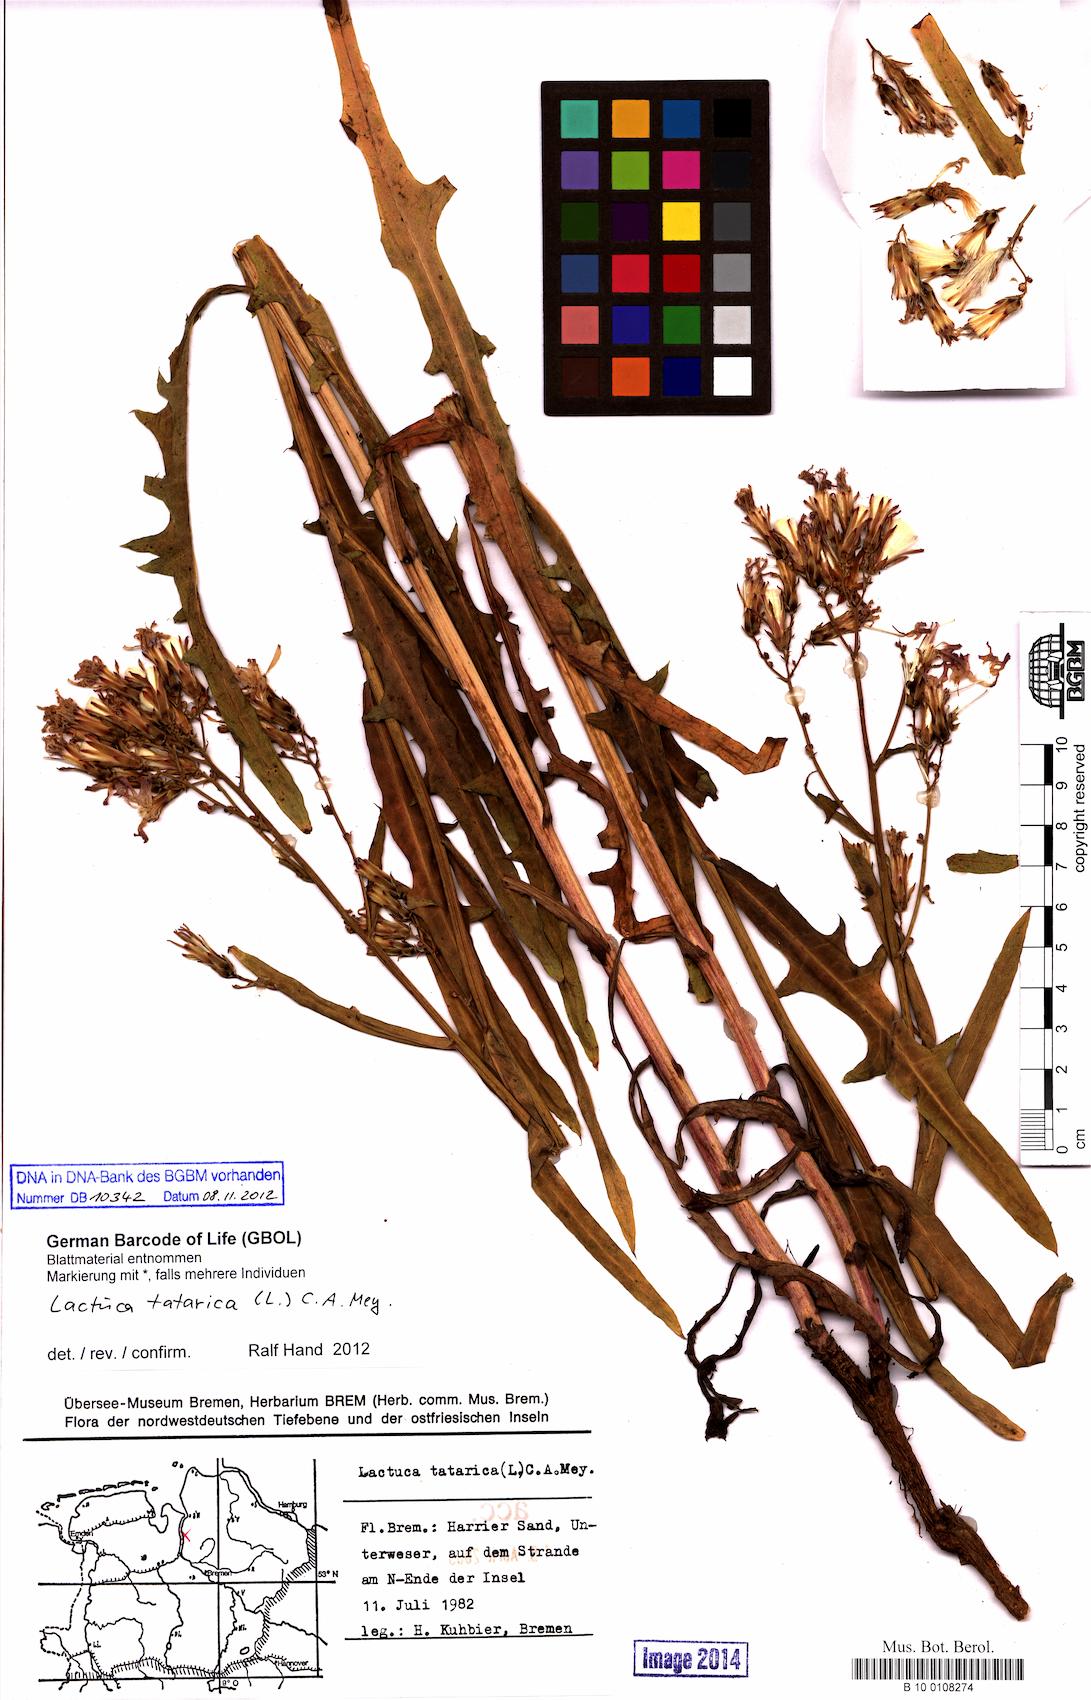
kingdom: Plantae
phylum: Tracheophyta
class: Magnoliopsida
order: Asterales
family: Asteraceae
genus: Lactuca
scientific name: Lactuca tatarica
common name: Blue lettuce
